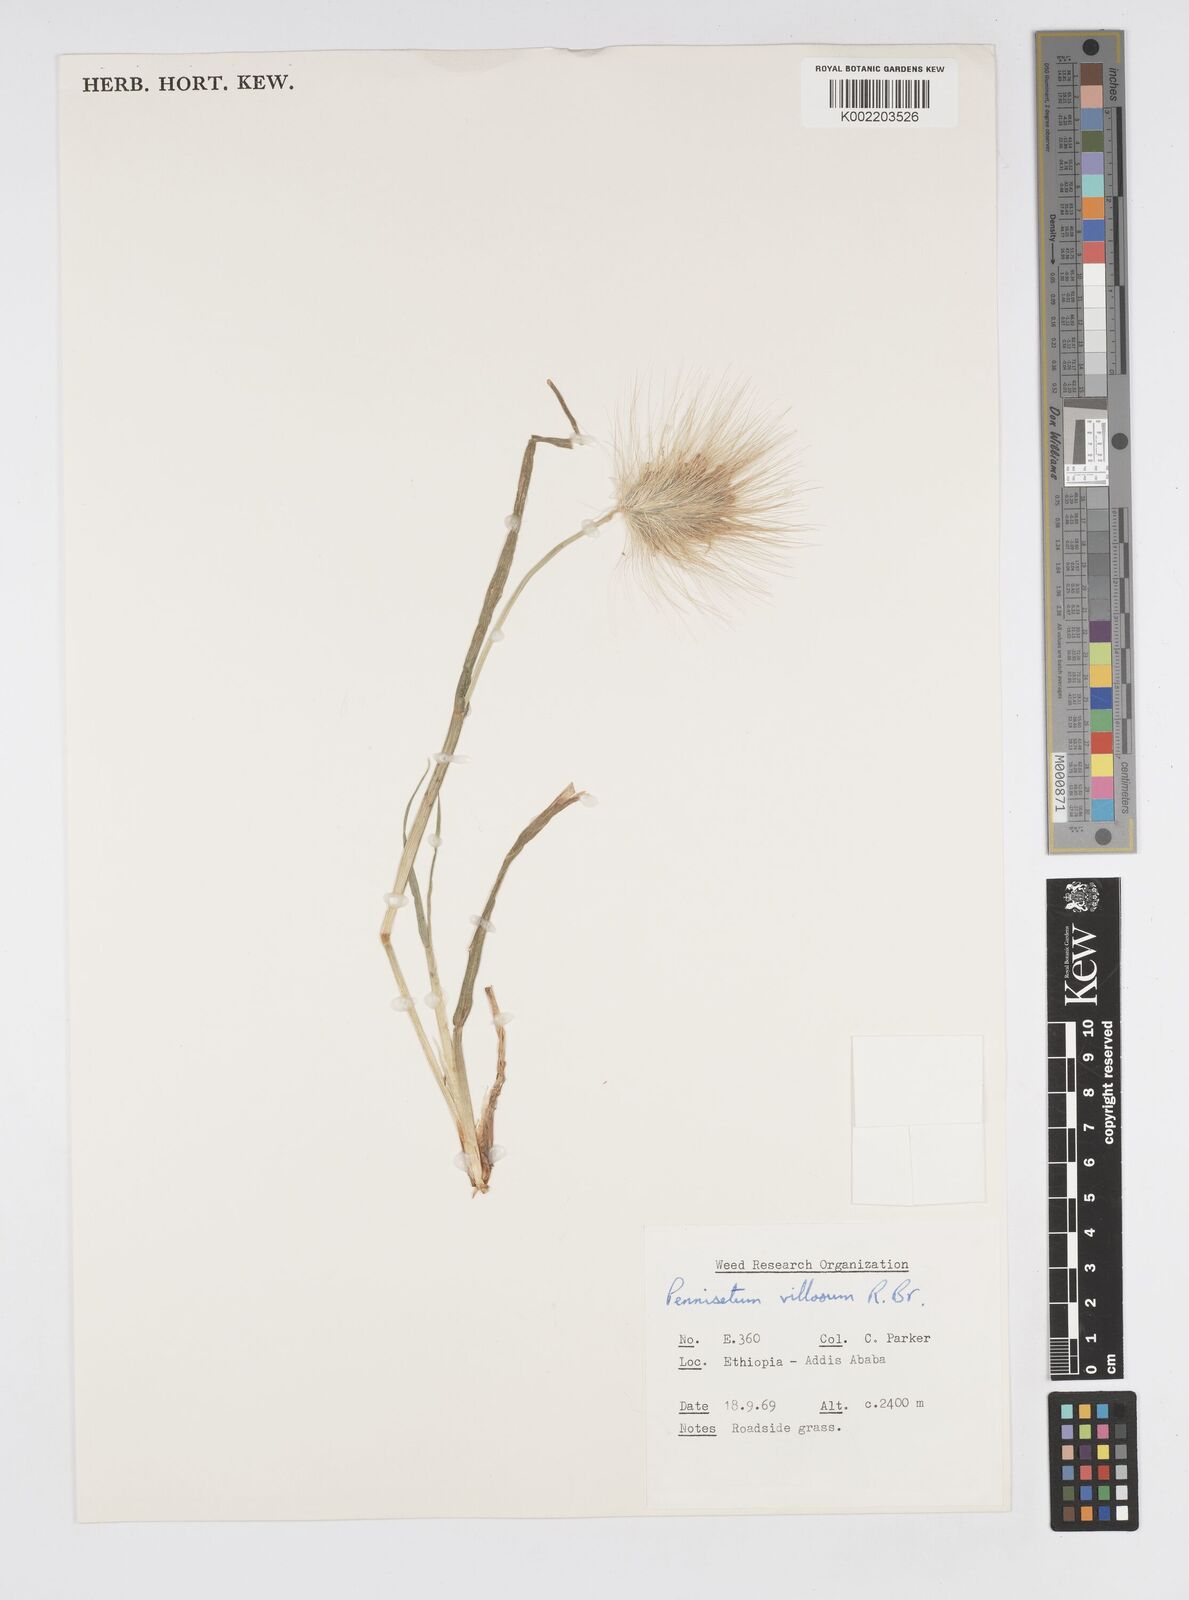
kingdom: Plantae
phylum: Tracheophyta
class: Liliopsida
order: Poales
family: Poaceae
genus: Cenchrus
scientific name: Cenchrus longisetus
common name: Feathertop
